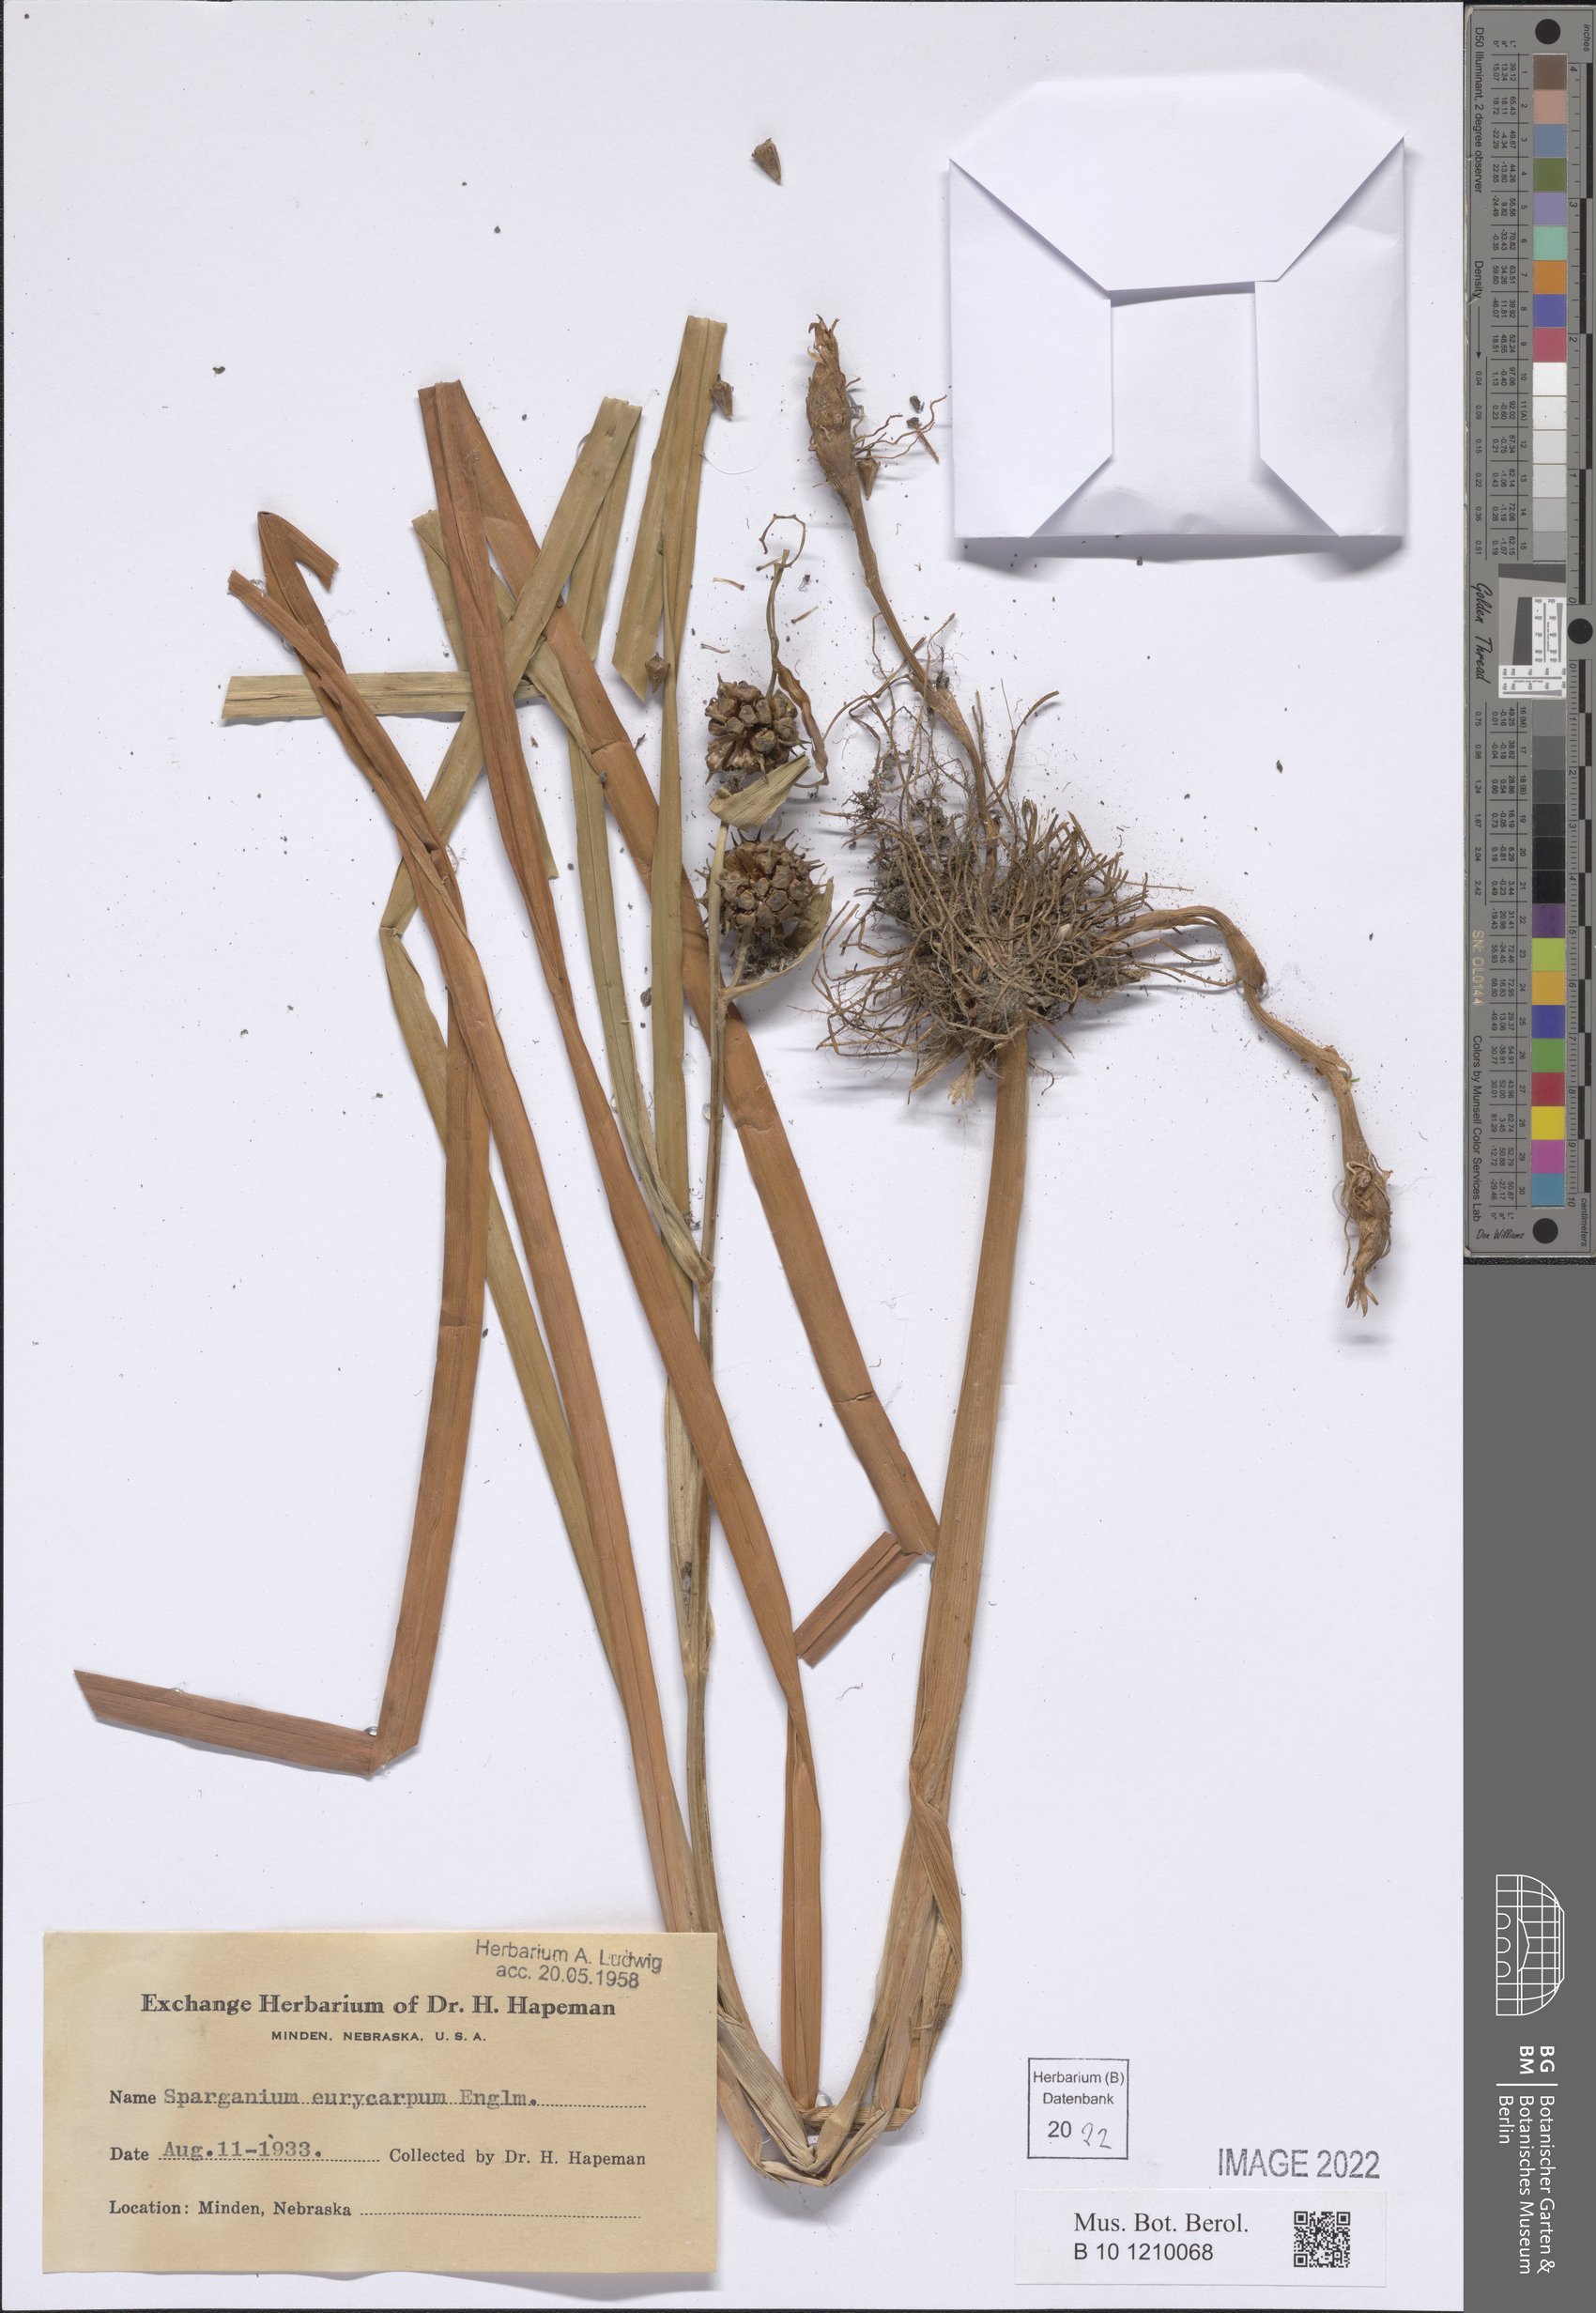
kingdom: Plantae
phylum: Tracheophyta
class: Liliopsida
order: Poales
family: Typhaceae
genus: Sparganium
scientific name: Sparganium eurycarpum
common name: Broad-fruited burreed
